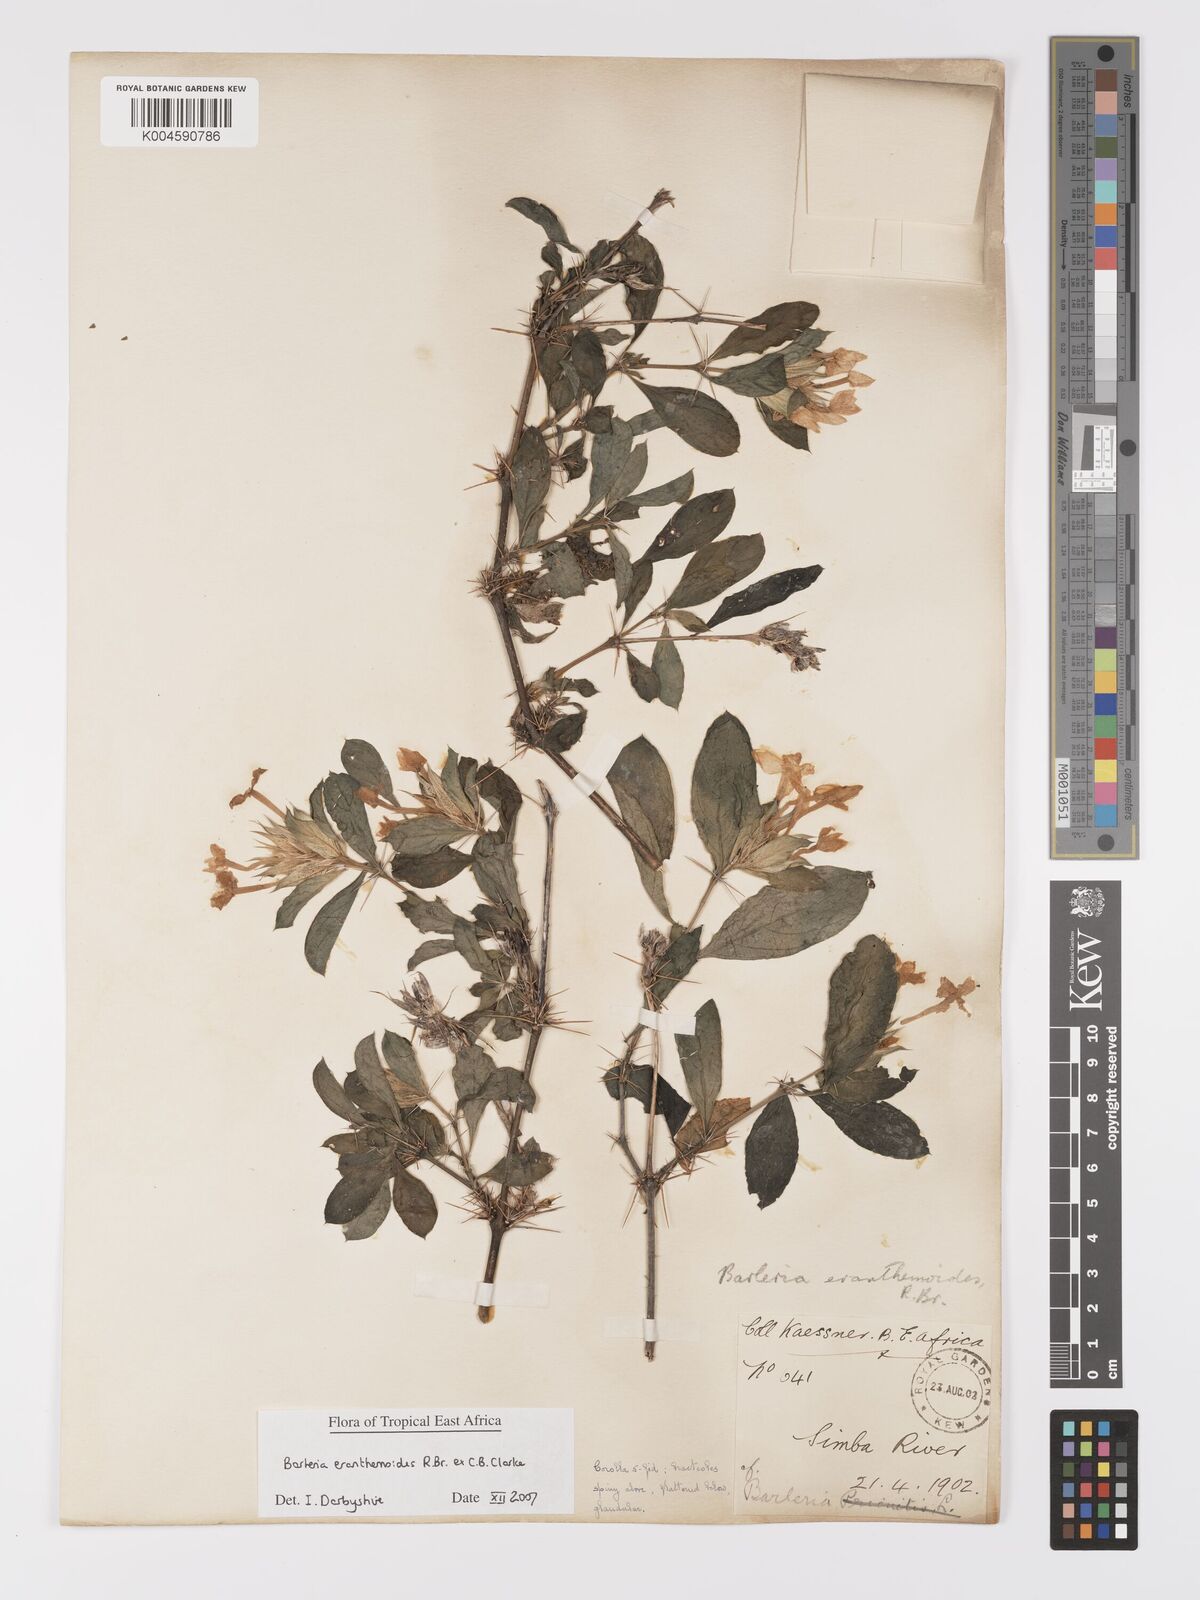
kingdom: Plantae
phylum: Tracheophyta
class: Magnoliopsida
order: Lamiales
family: Acanthaceae
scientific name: Acanthaceae
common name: Acanthaceae
